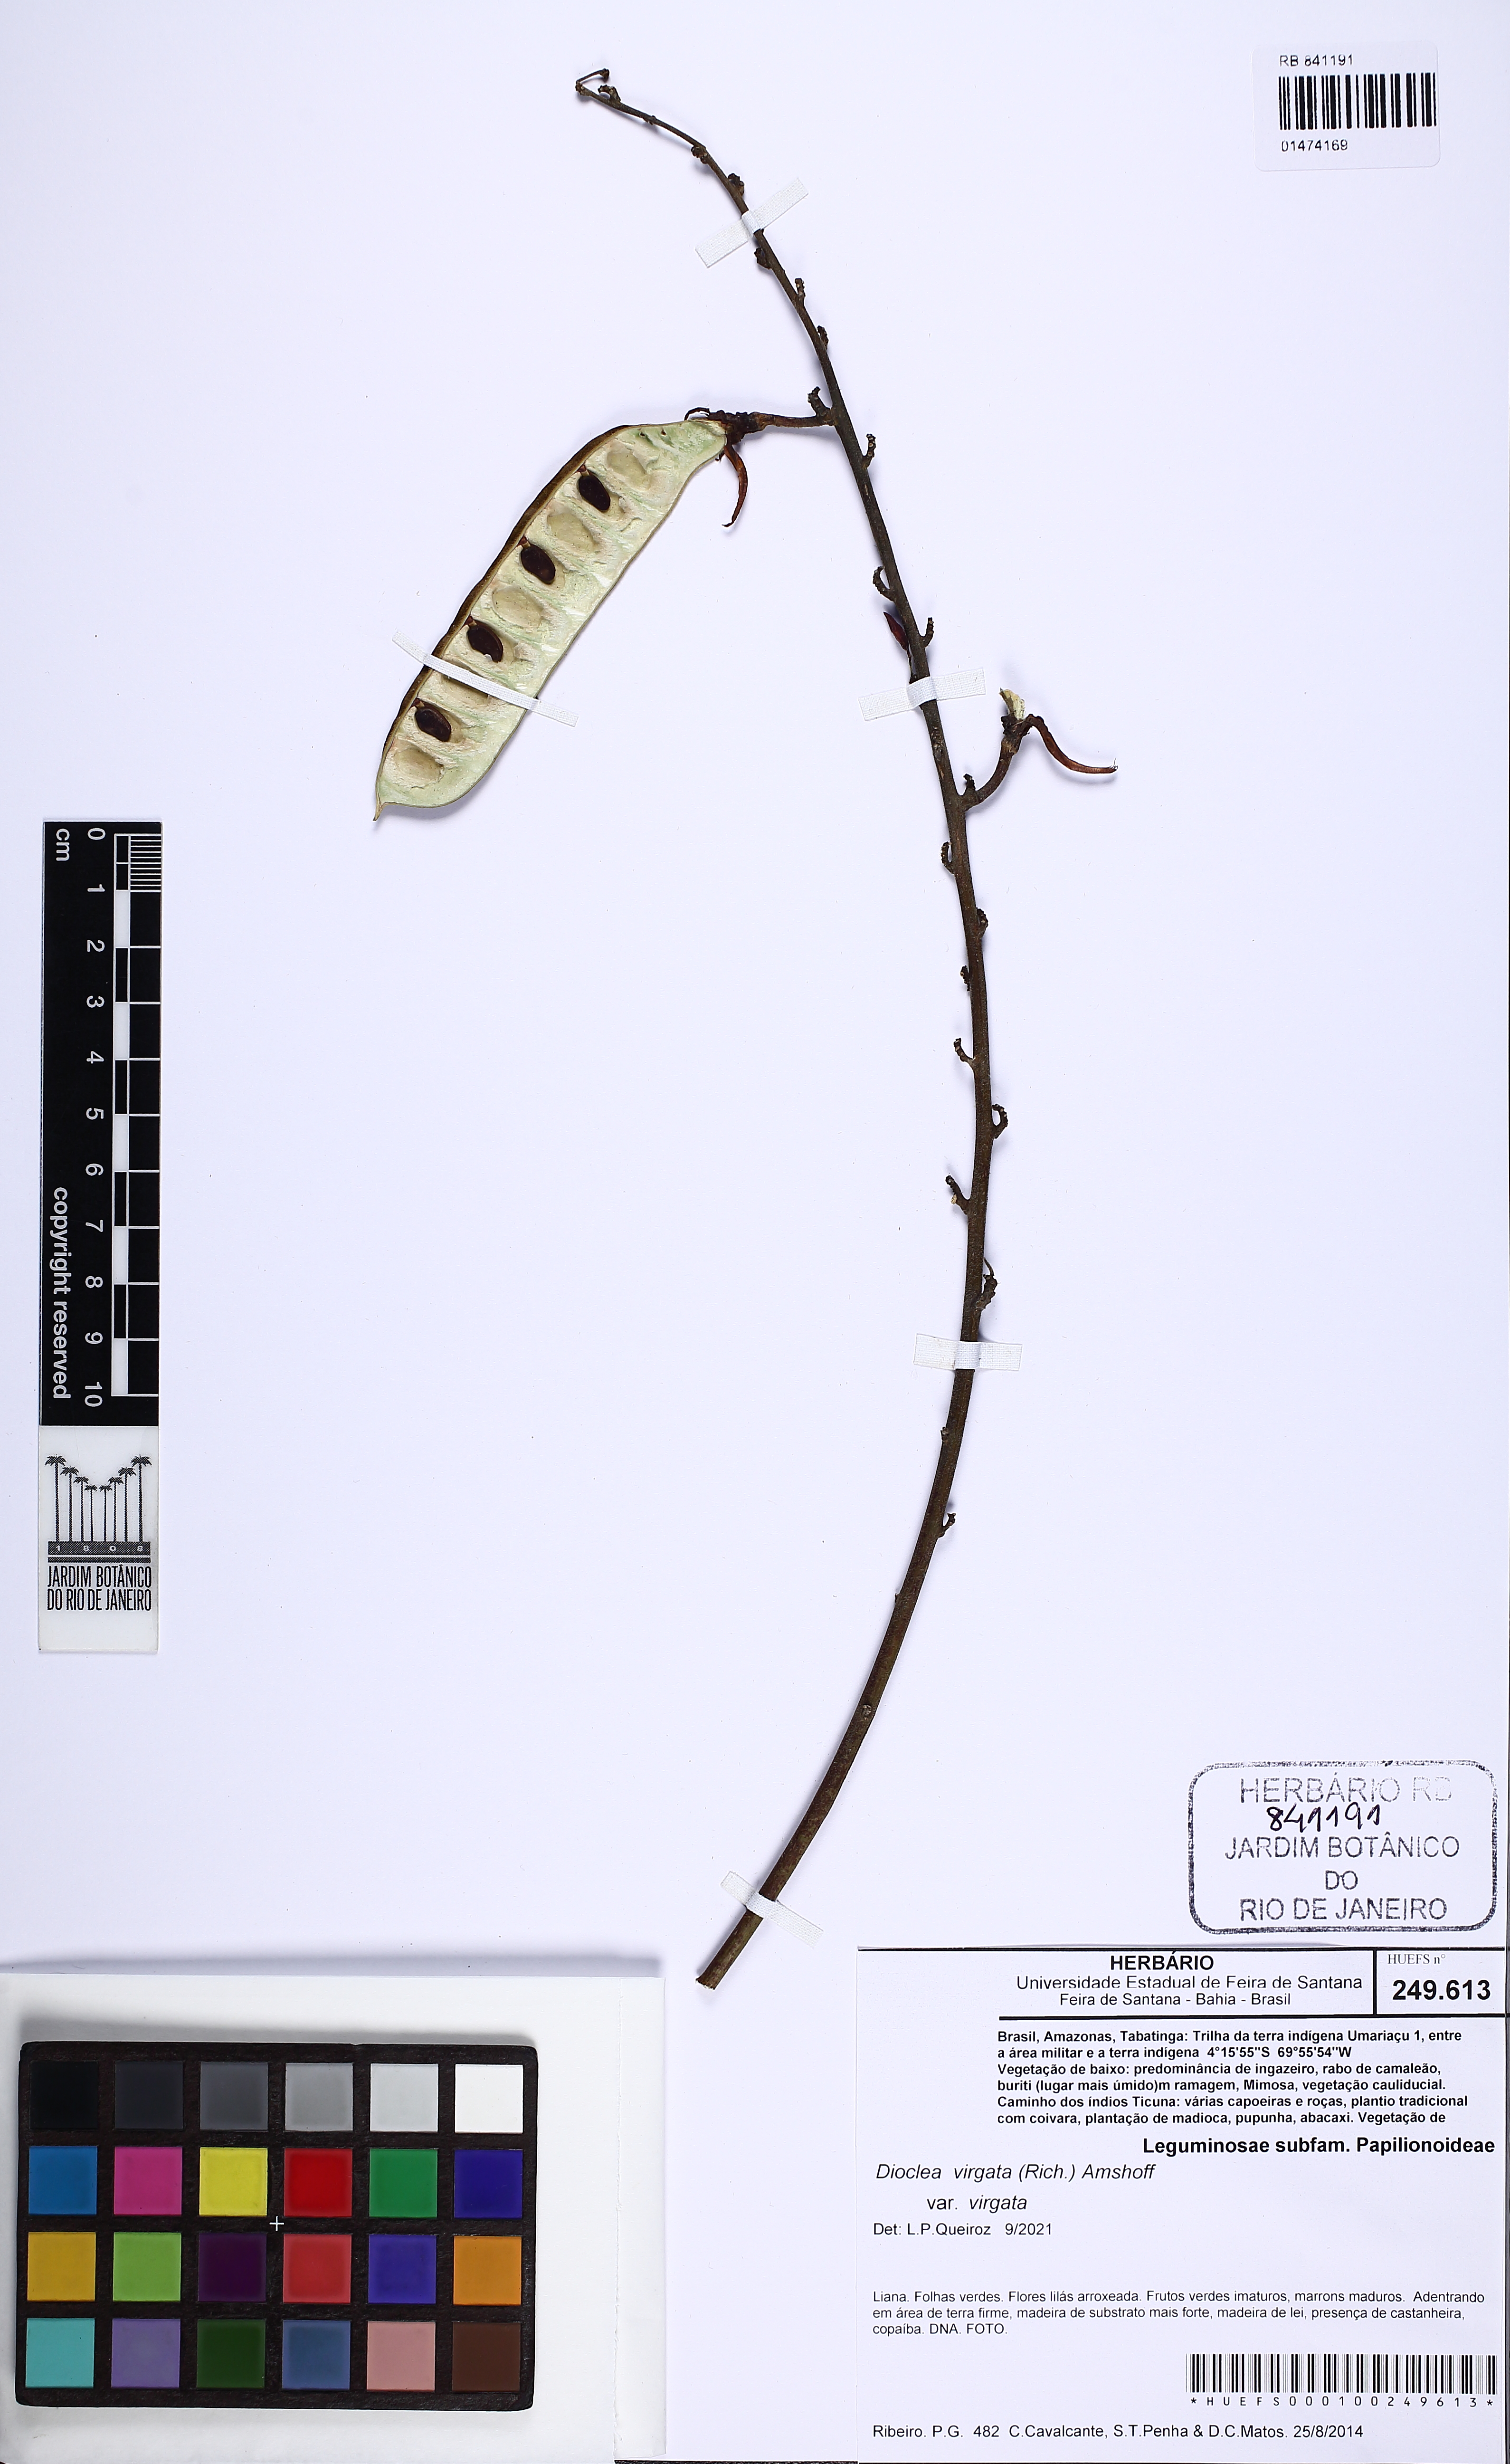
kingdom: Plantae
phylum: Tracheophyta
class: Magnoliopsida
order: Fabales
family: Fabaceae
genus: Dioclea
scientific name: Dioclea virgata
